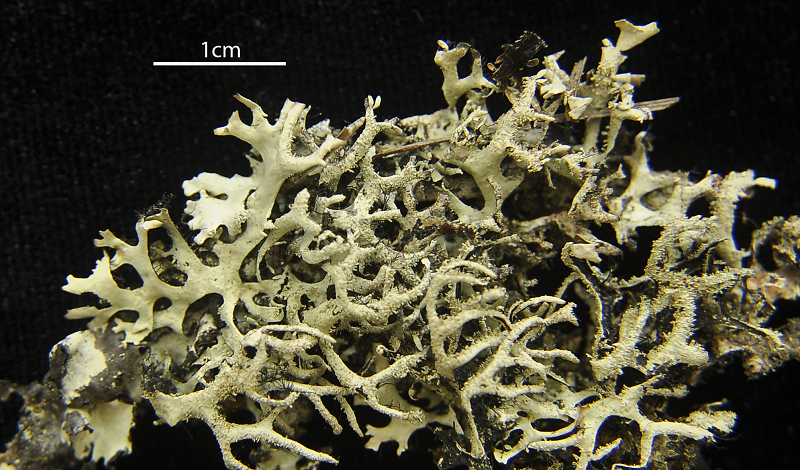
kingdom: Fungi
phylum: Ascomycota
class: Lecanoromycetes
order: Lecanorales
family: Parmeliaceae
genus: Parmotrema
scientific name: Parmotrema
